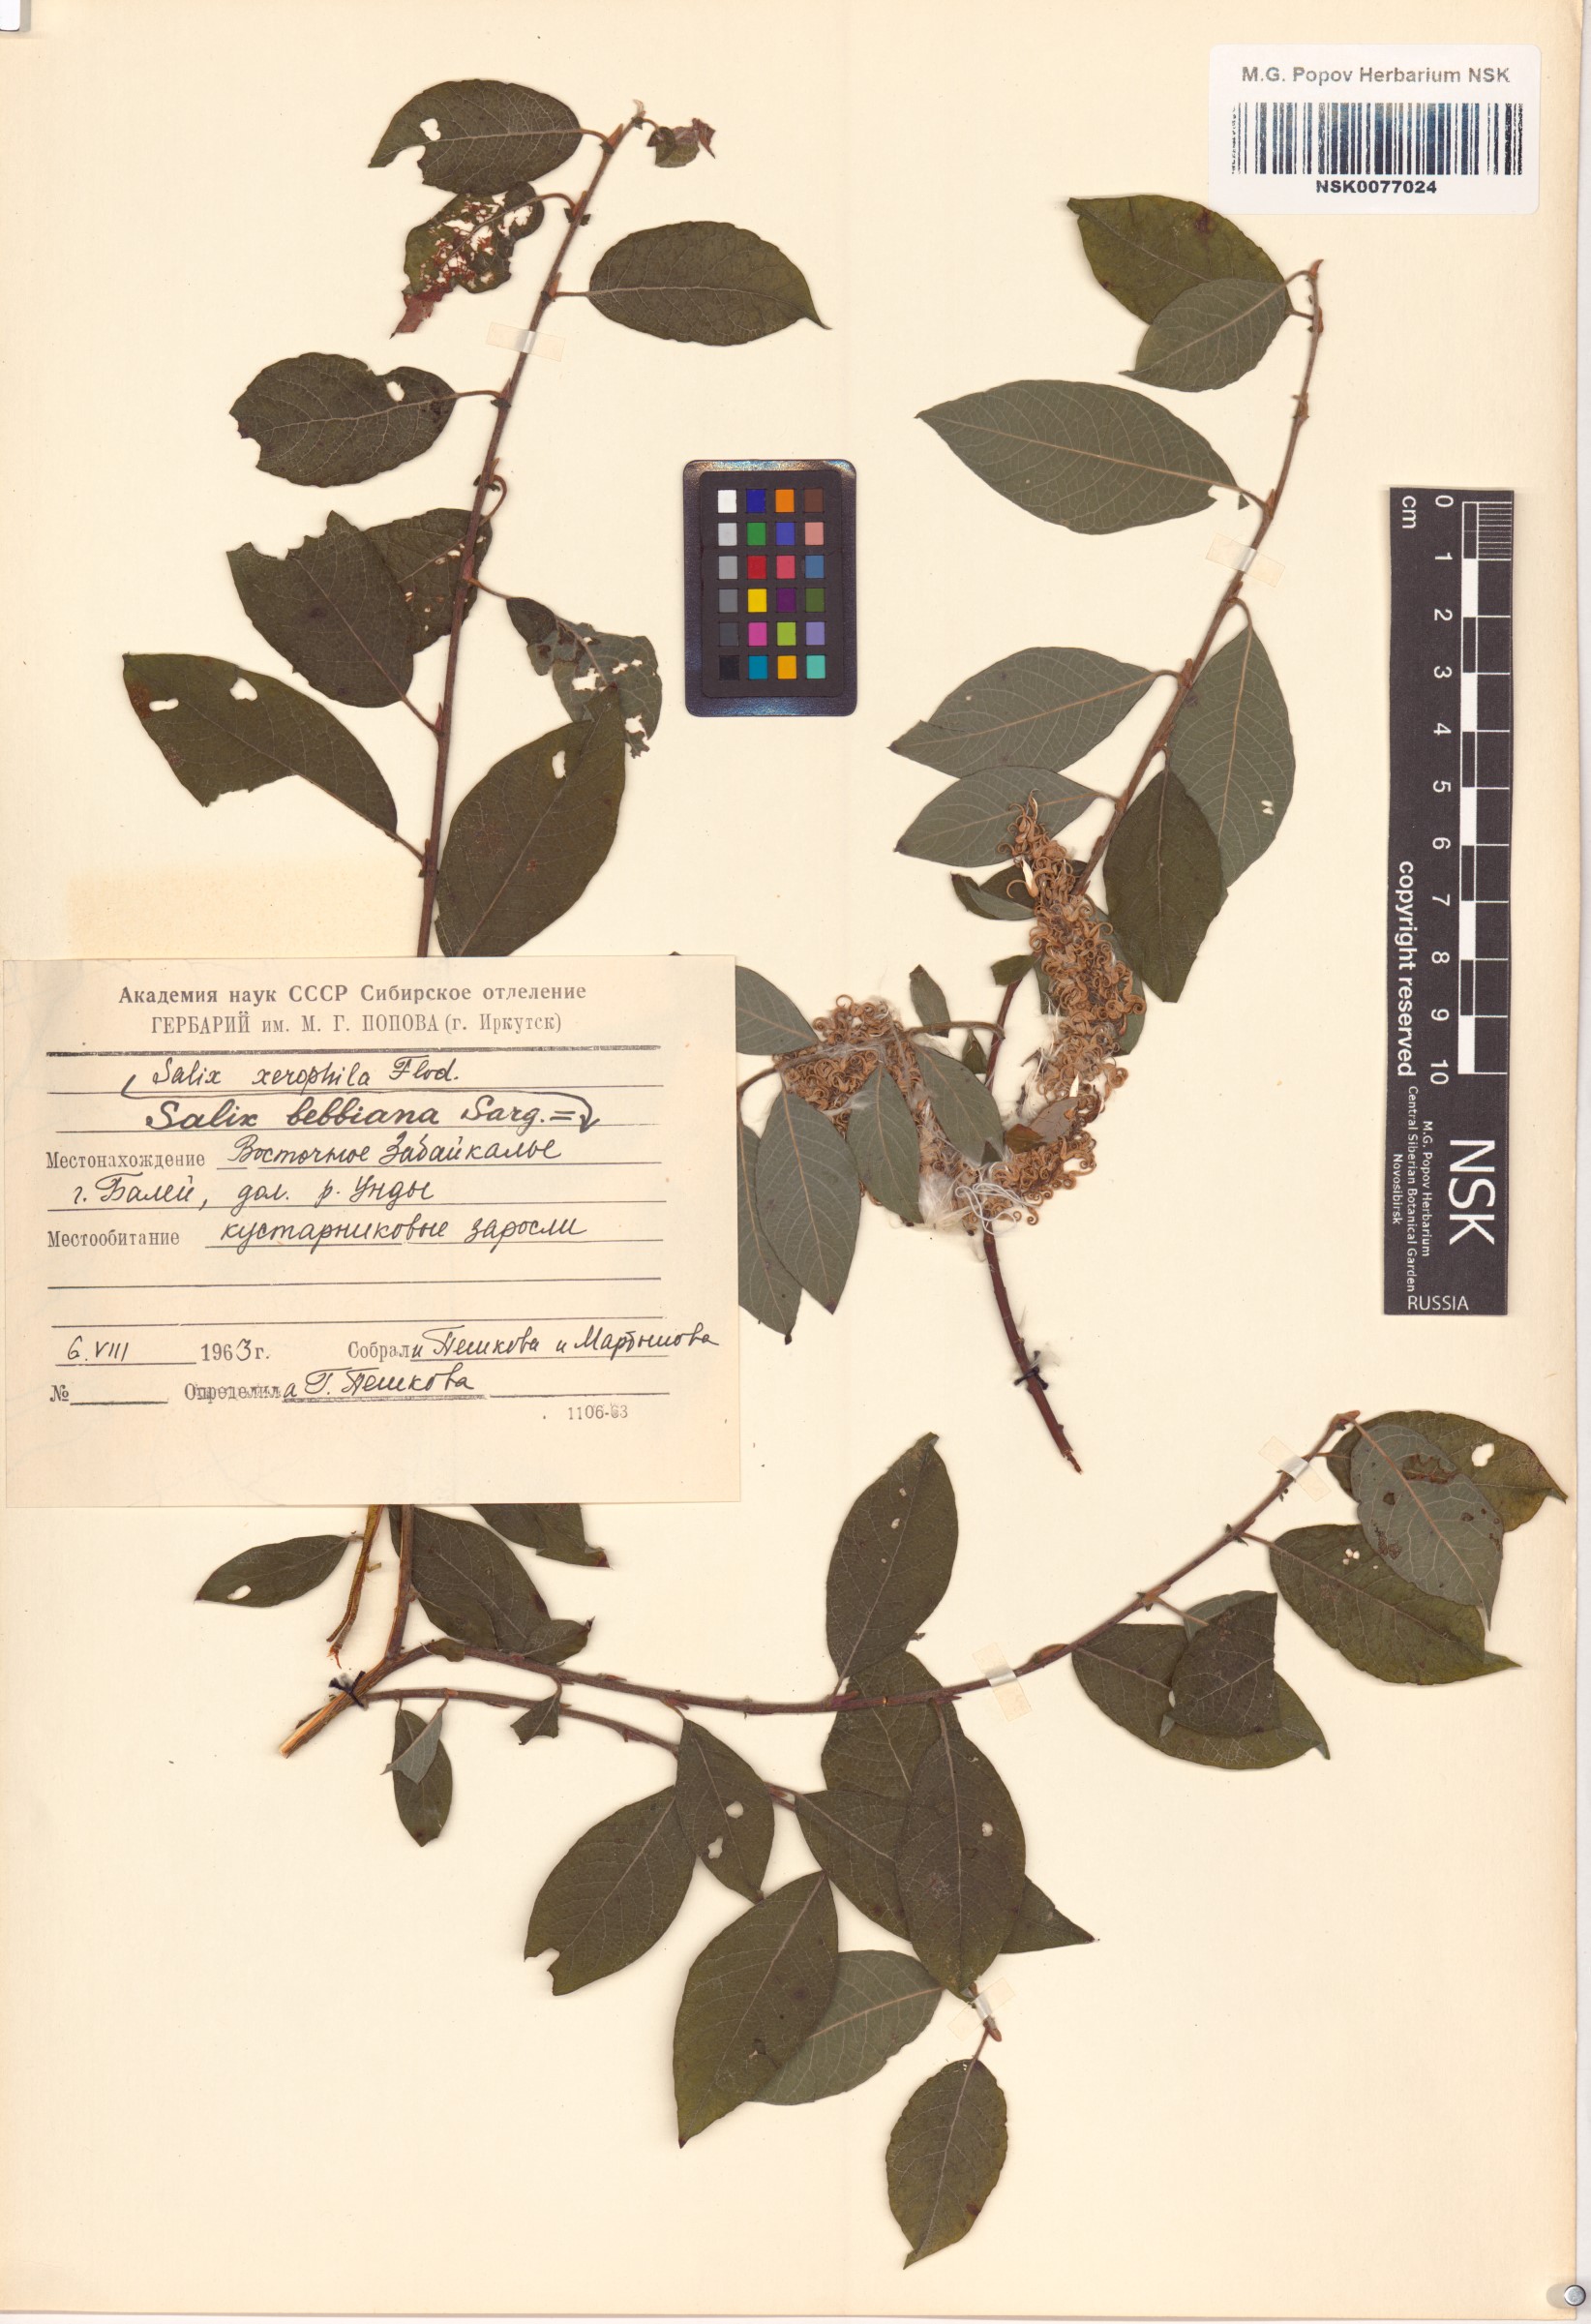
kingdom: Plantae
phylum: Tracheophyta
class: Magnoliopsida
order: Malpighiales
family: Salicaceae
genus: Salix
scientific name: Salix bebbiana
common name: Bebb's willow
